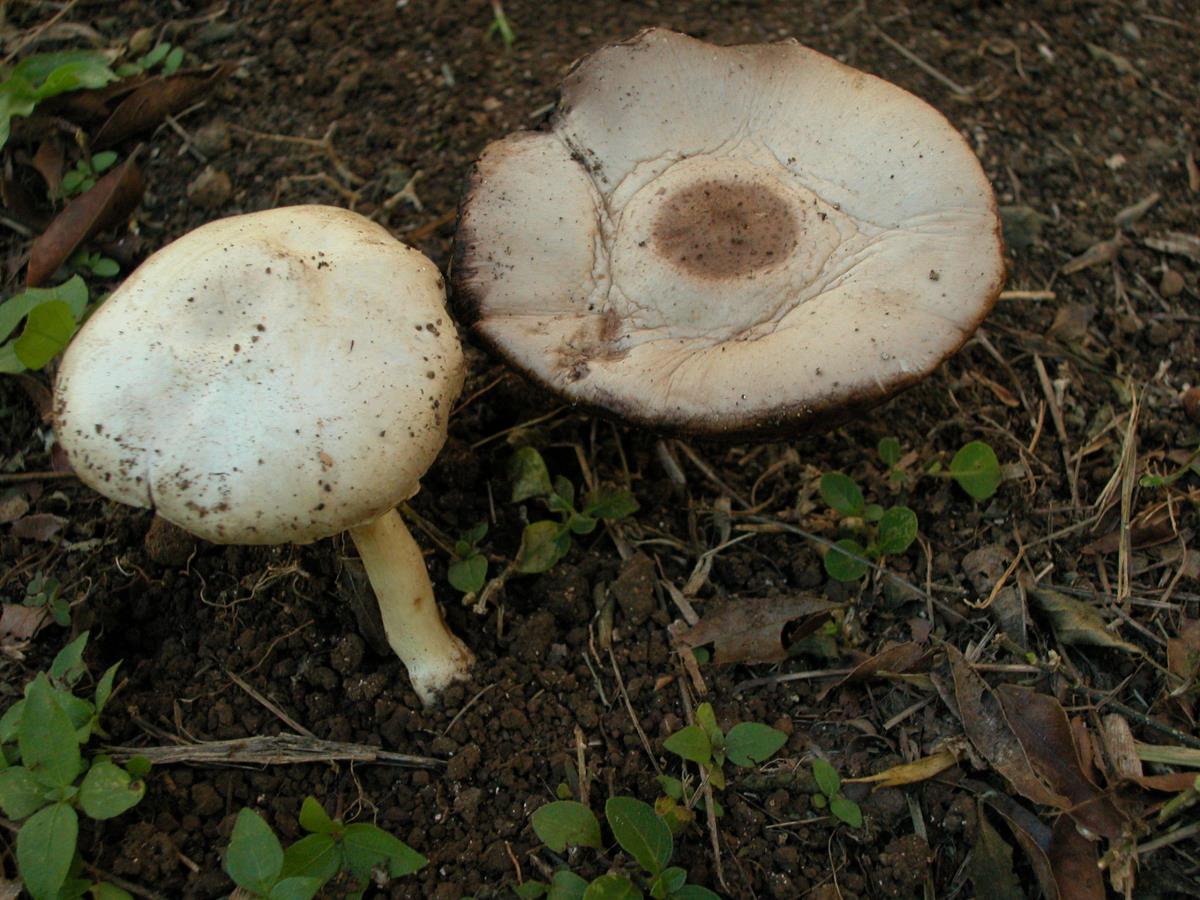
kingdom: Fungi
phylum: Basidiomycota
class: Agaricomycetes
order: Agaricales
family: Agaricaceae
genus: Agaricus
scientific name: Agaricus
